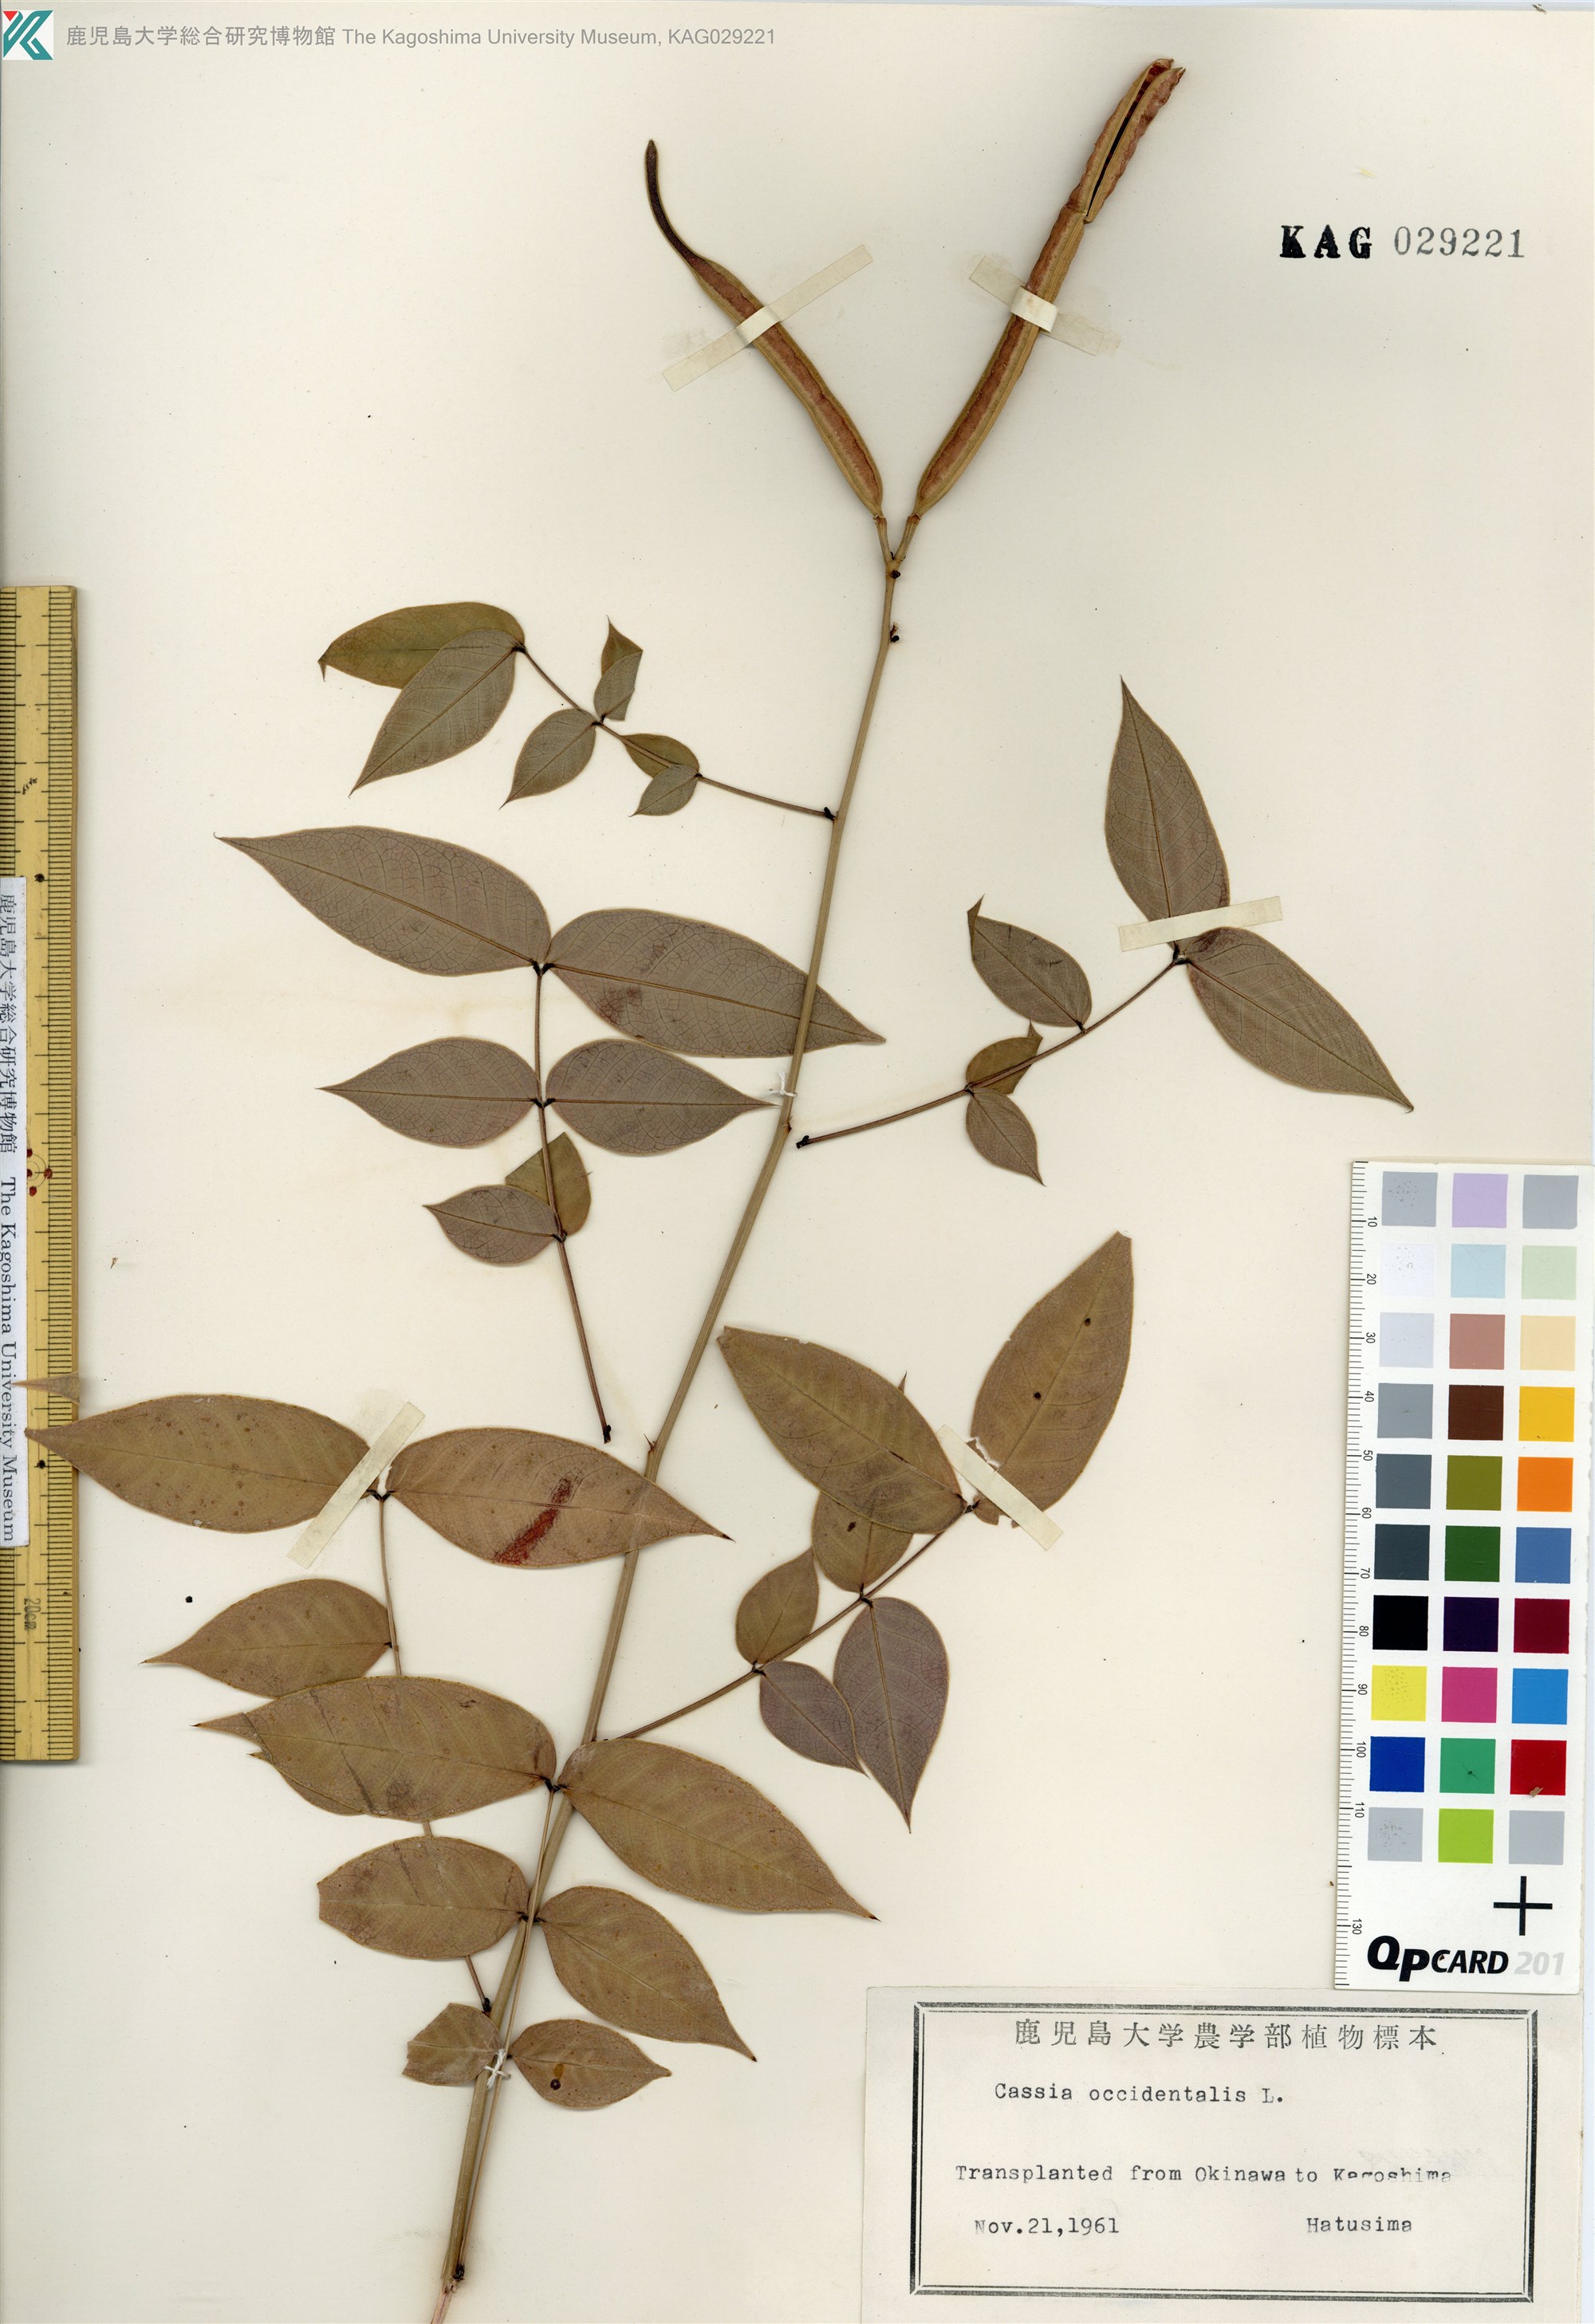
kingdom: Plantae
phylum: Tracheophyta
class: Magnoliopsida
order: Fabales
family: Fabaceae
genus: Senna
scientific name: Senna occidentalis
